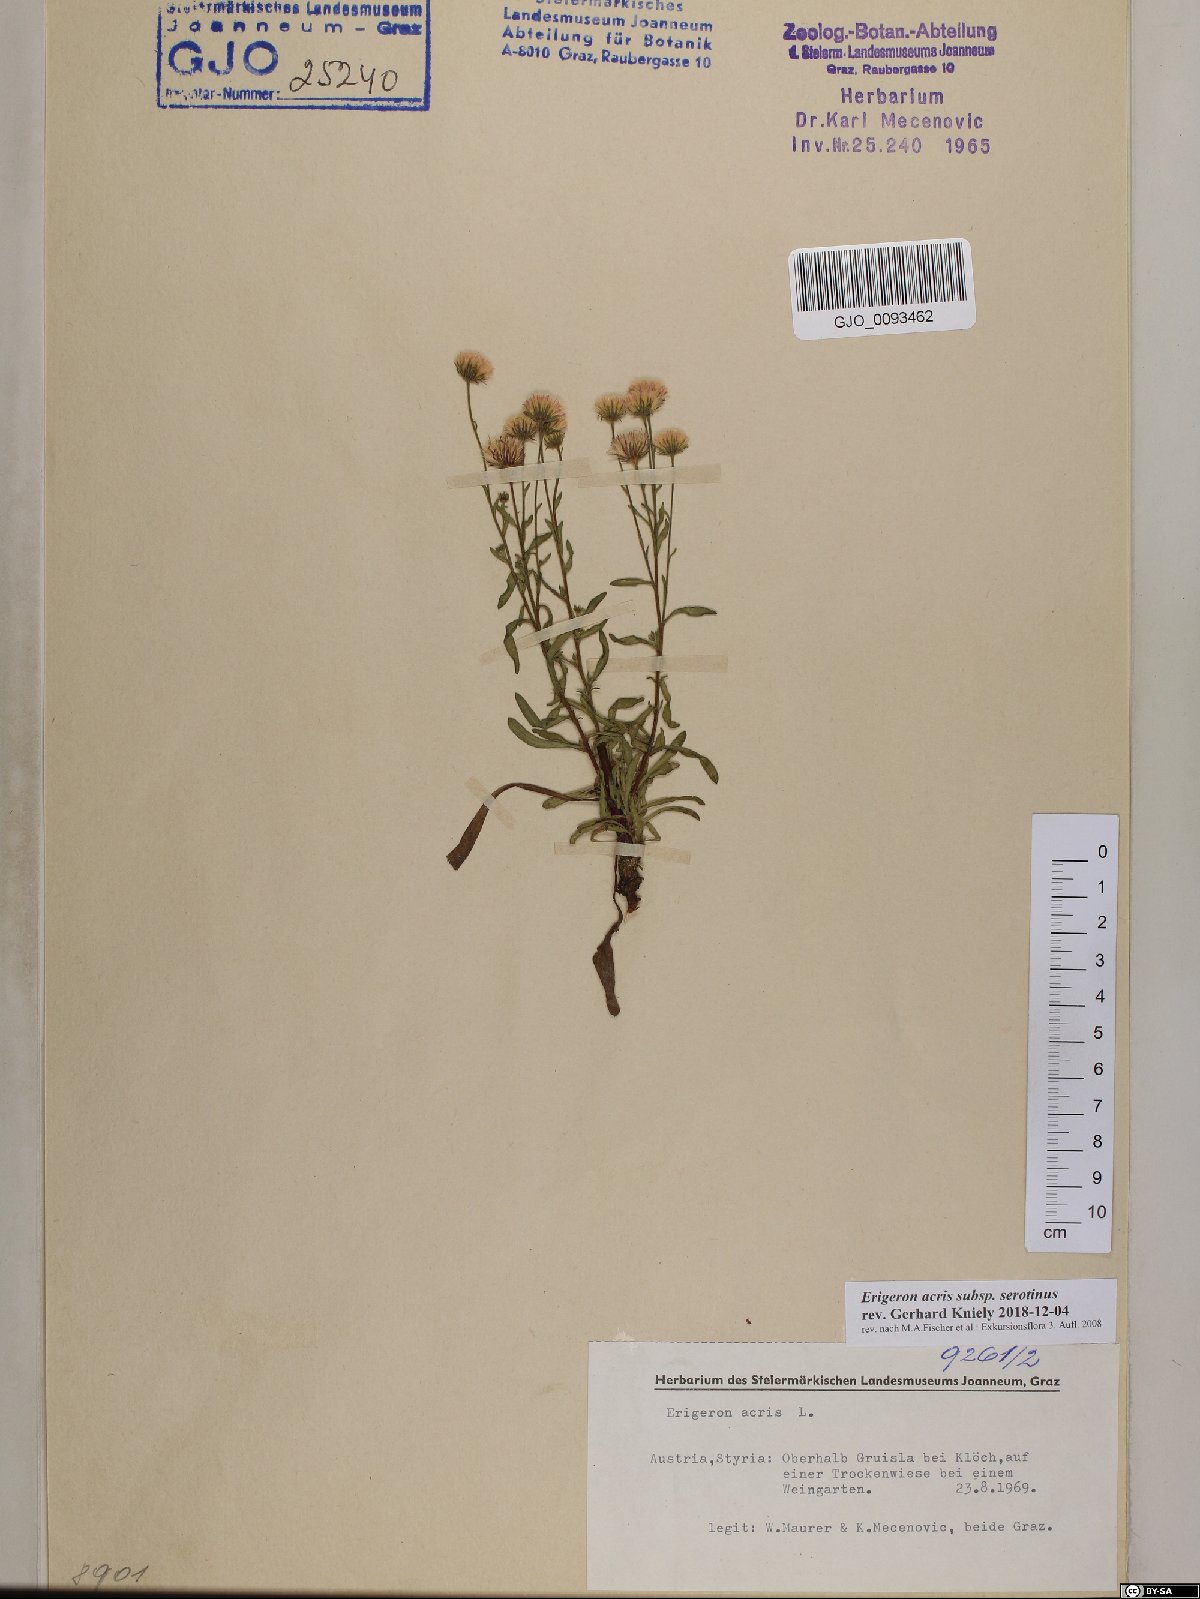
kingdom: Plantae
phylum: Tracheophyta
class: Magnoliopsida
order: Asterales
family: Asteraceae
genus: Erigeron
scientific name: Erigeron muralis
